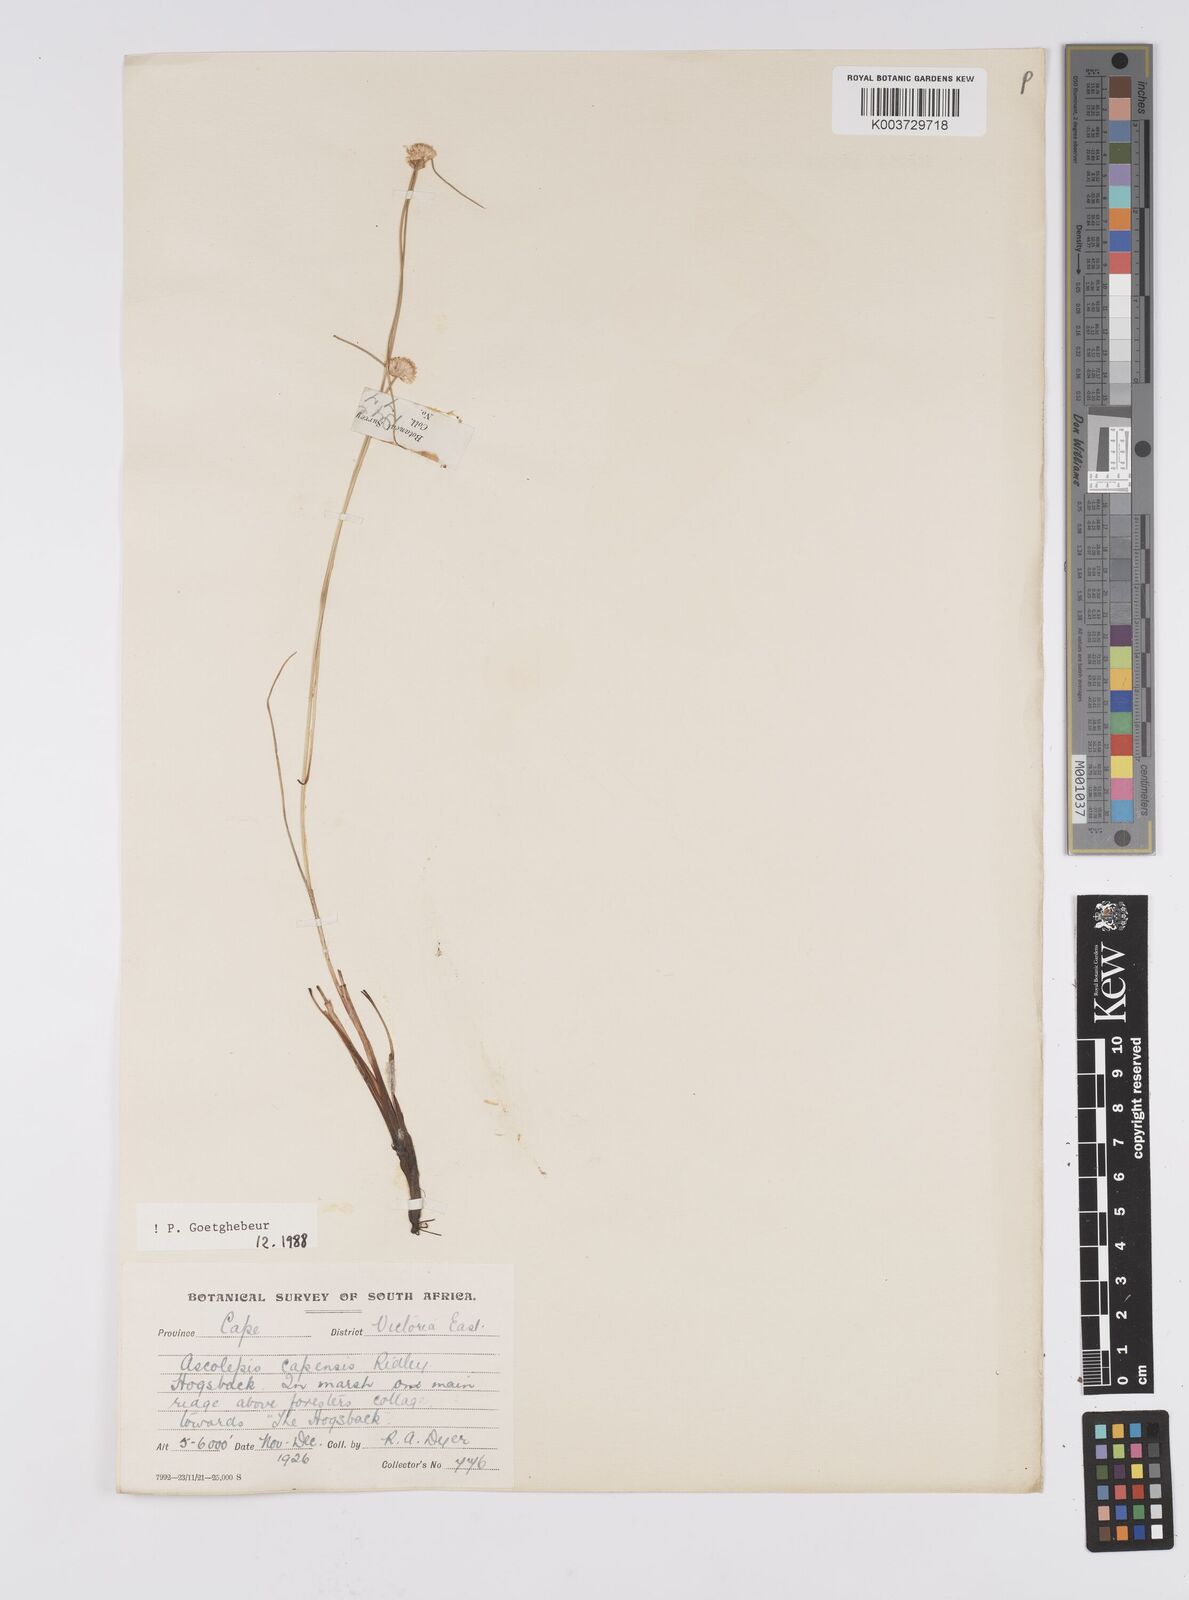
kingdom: Plantae
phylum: Tracheophyta
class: Liliopsida
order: Poales
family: Cyperaceae
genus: Cyperus
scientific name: Cyperus capensis
